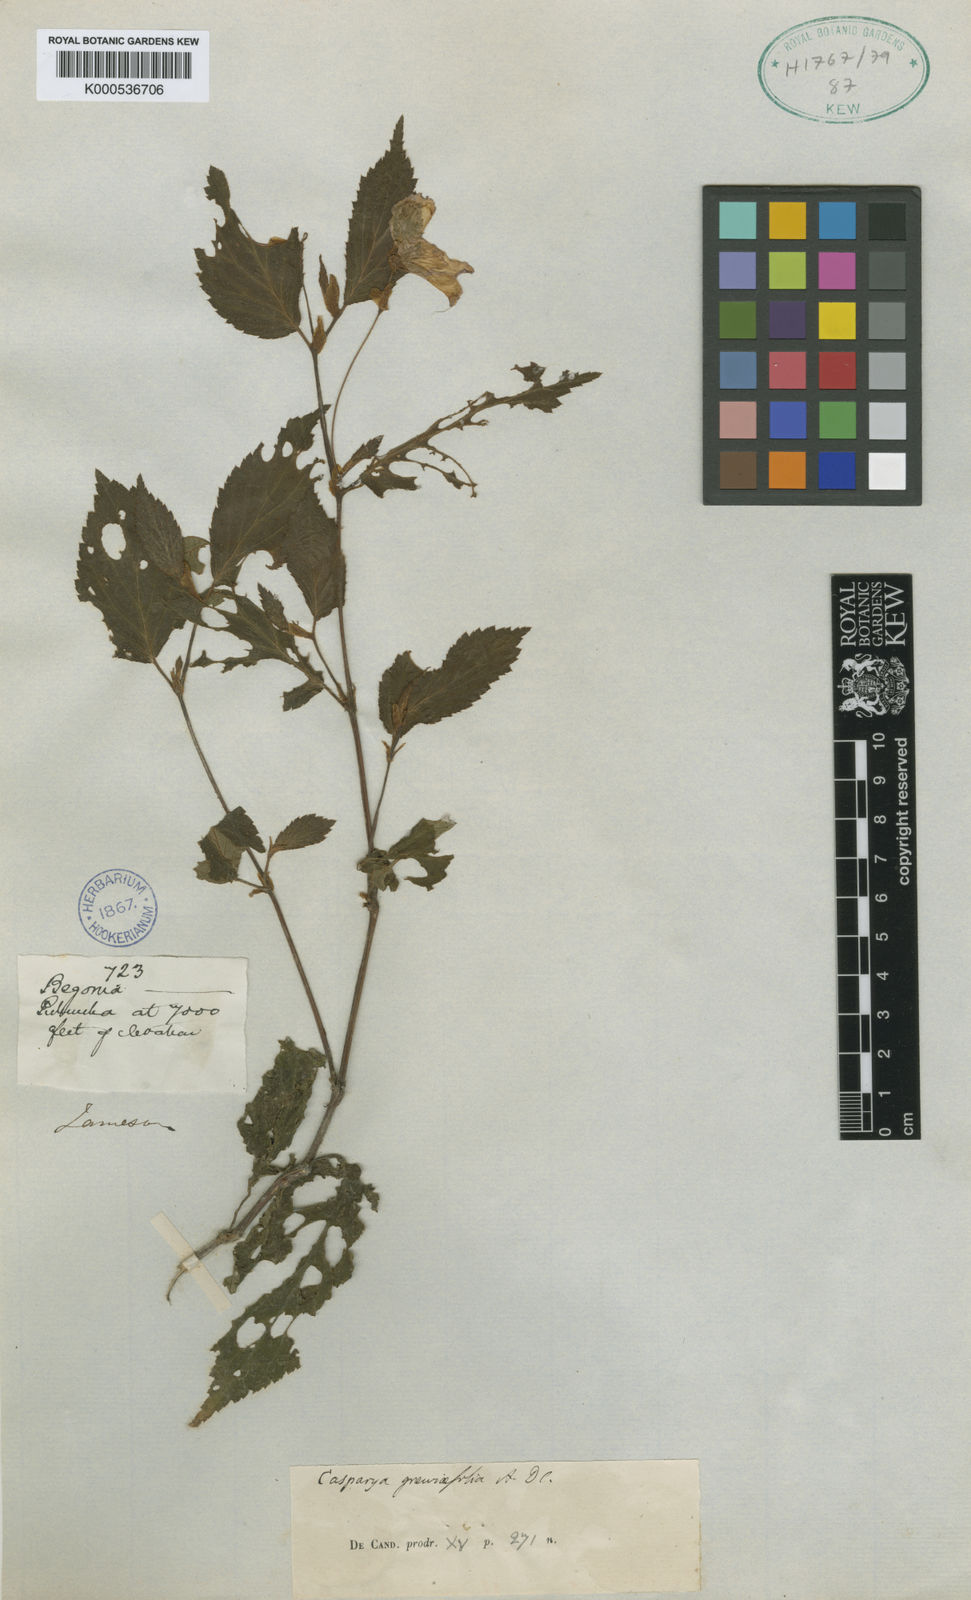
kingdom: Plantae
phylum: Tracheophyta
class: Magnoliopsida
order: Cucurbitales
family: Begoniaceae
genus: Begonia
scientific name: Begonia longirostris
